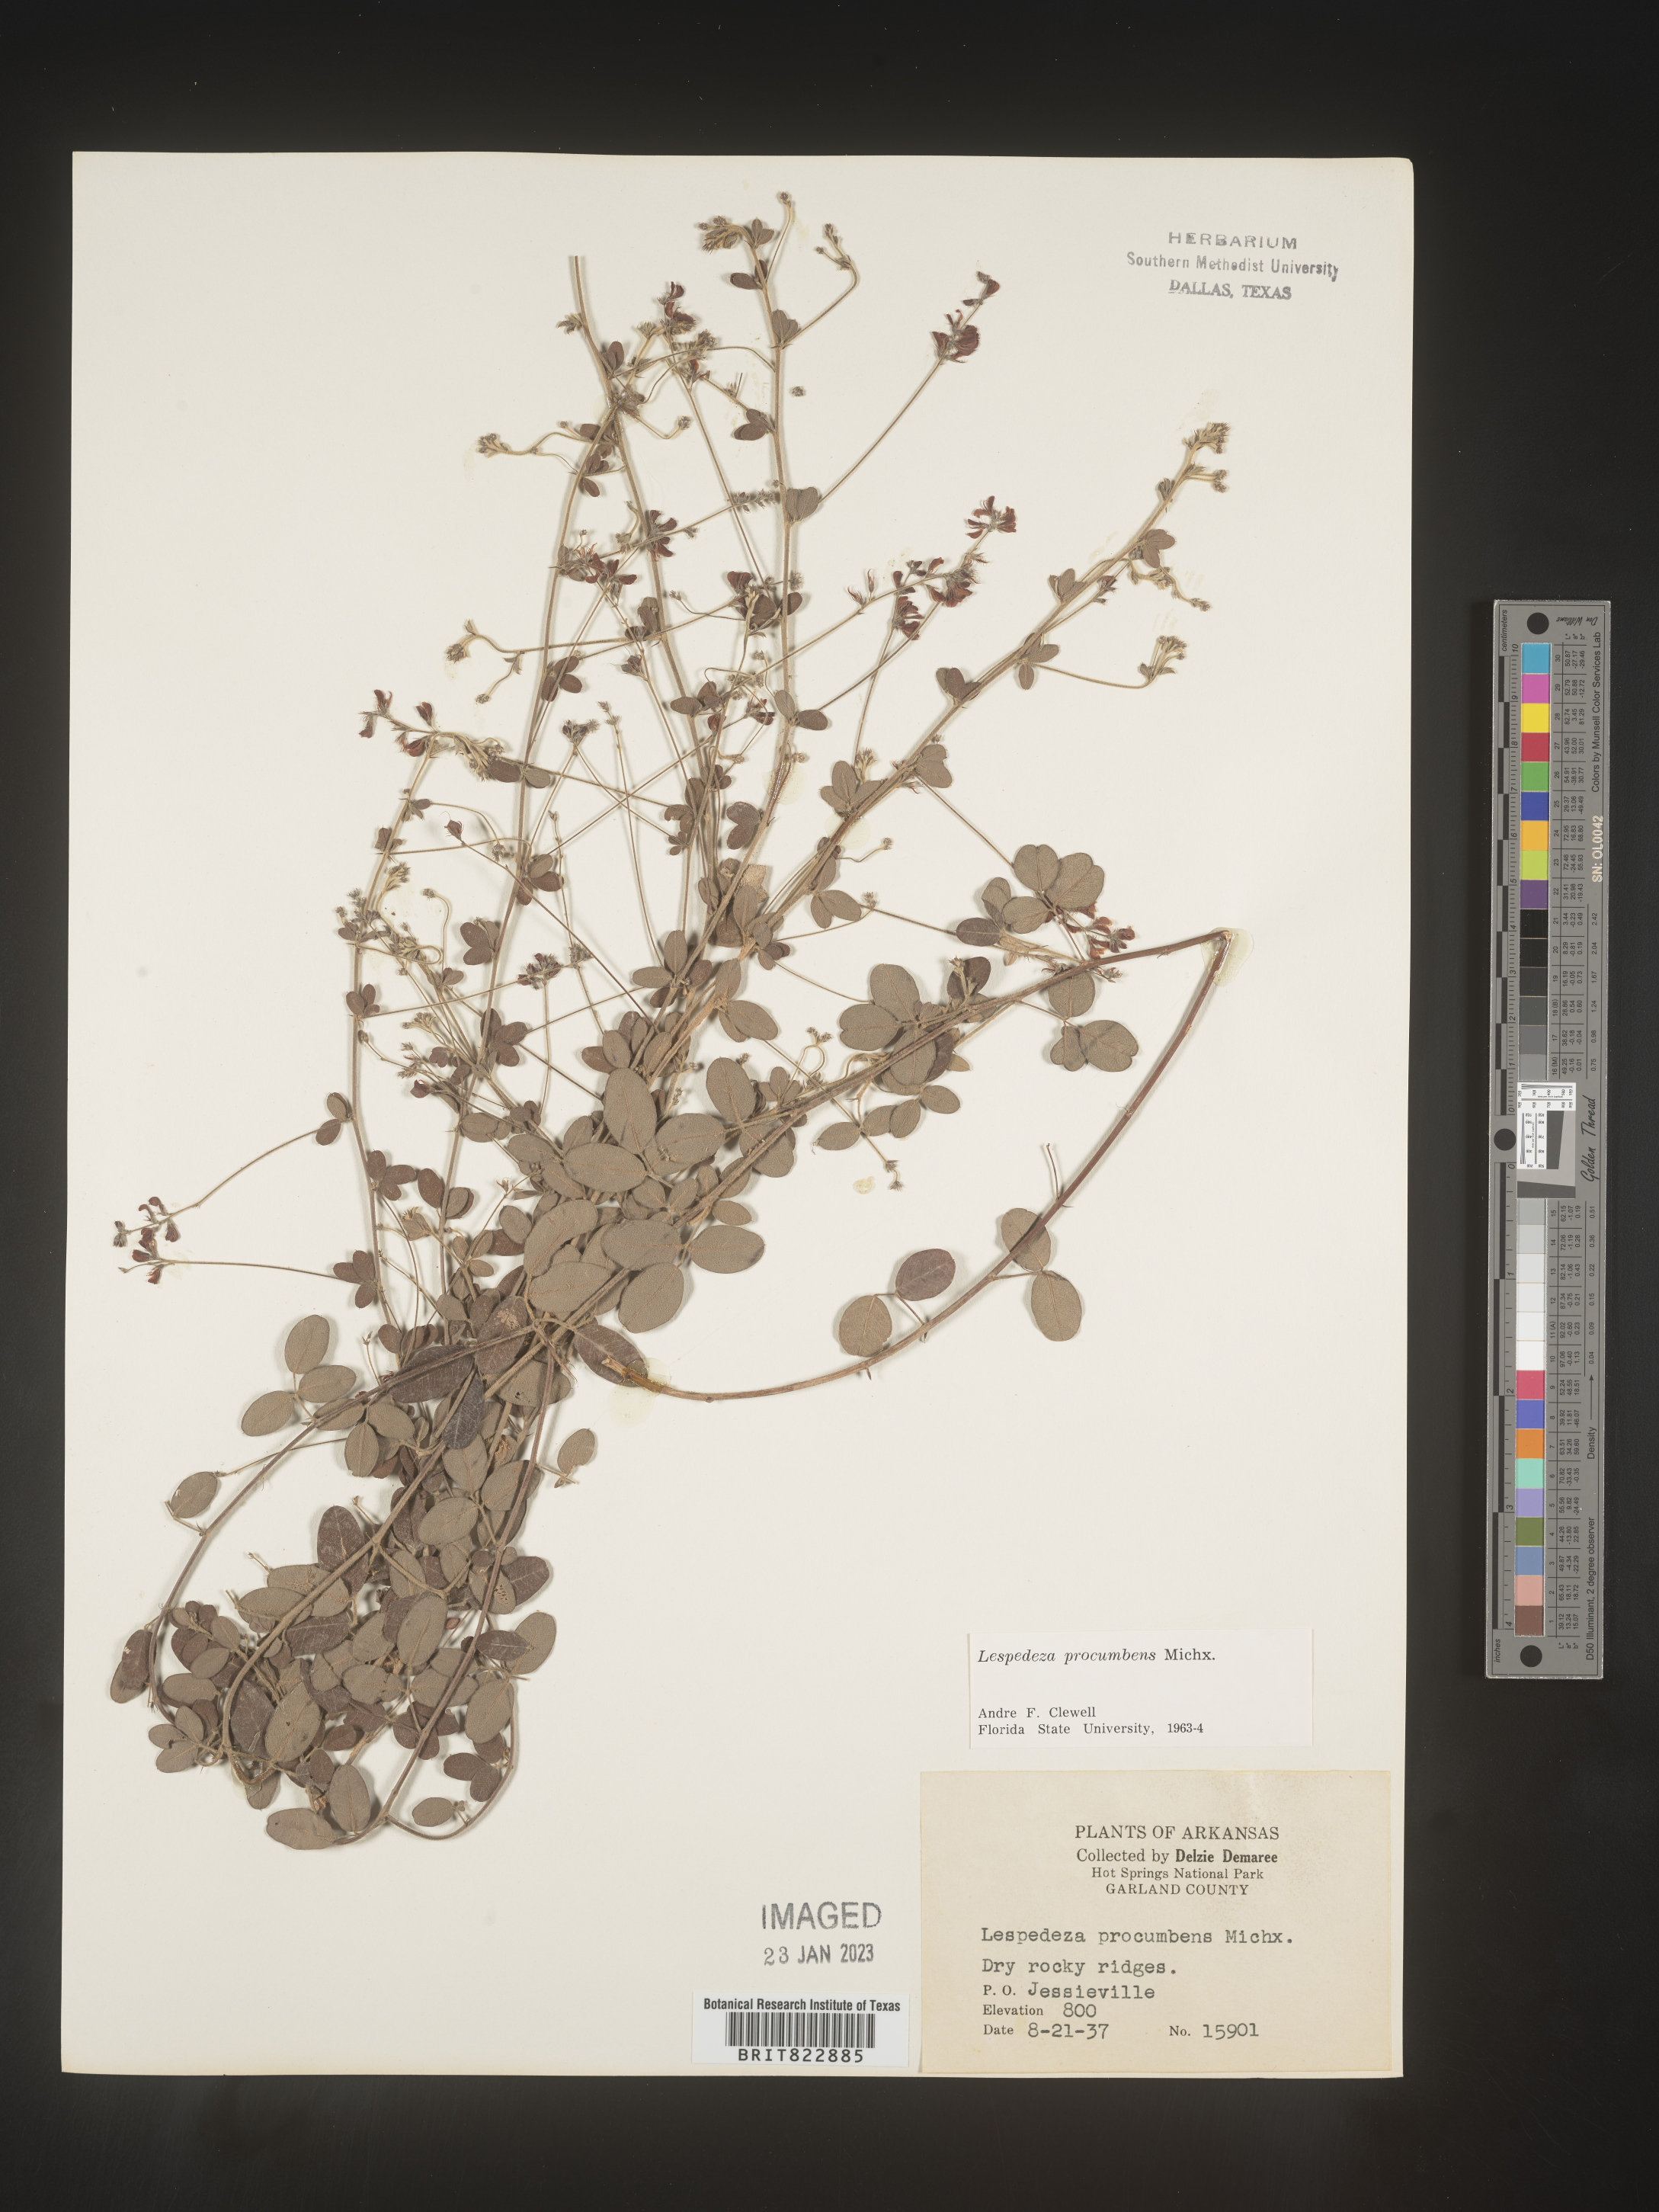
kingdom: Plantae
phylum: Tracheophyta
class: Magnoliopsida
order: Fabales
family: Fabaceae
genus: Lespedeza
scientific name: Lespedeza procumbens
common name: Downy trailing bush-clover
